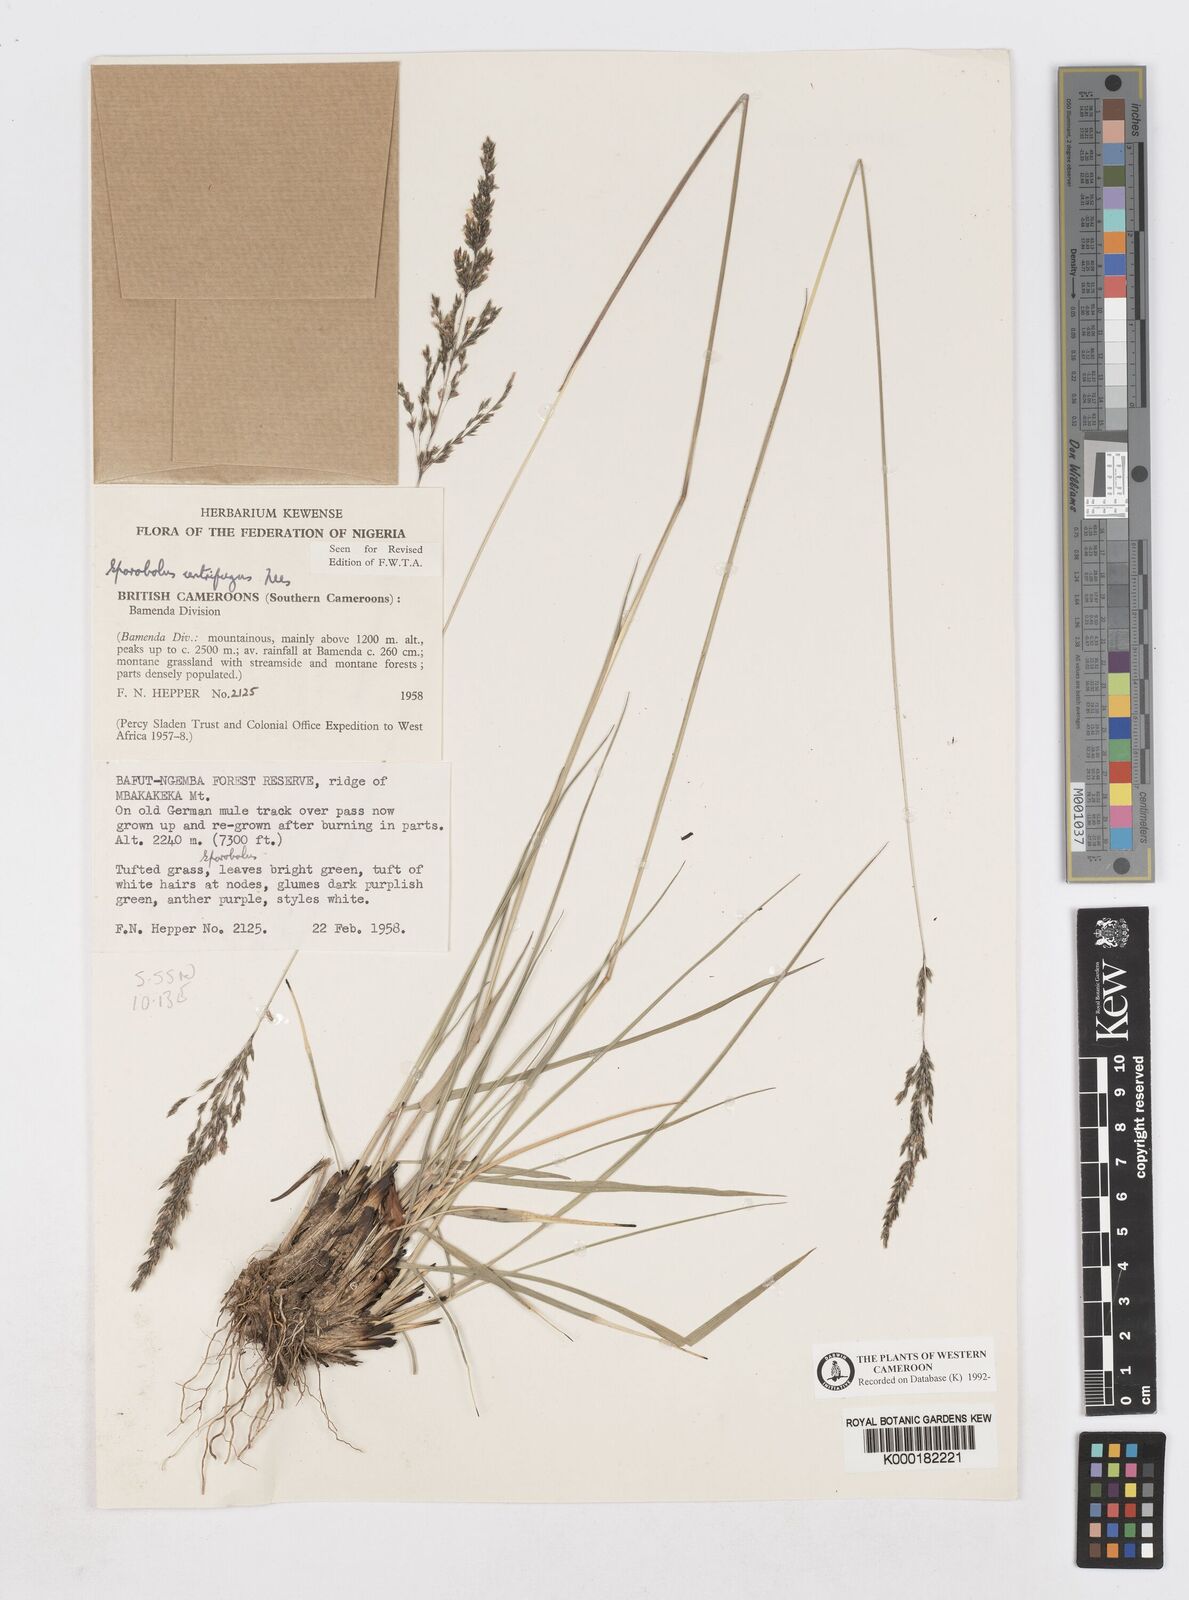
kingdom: Plantae
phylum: Tracheophyta
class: Liliopsida
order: Poales
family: Poaceae
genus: Sporobolus
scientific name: Sporobolus centrifugus
